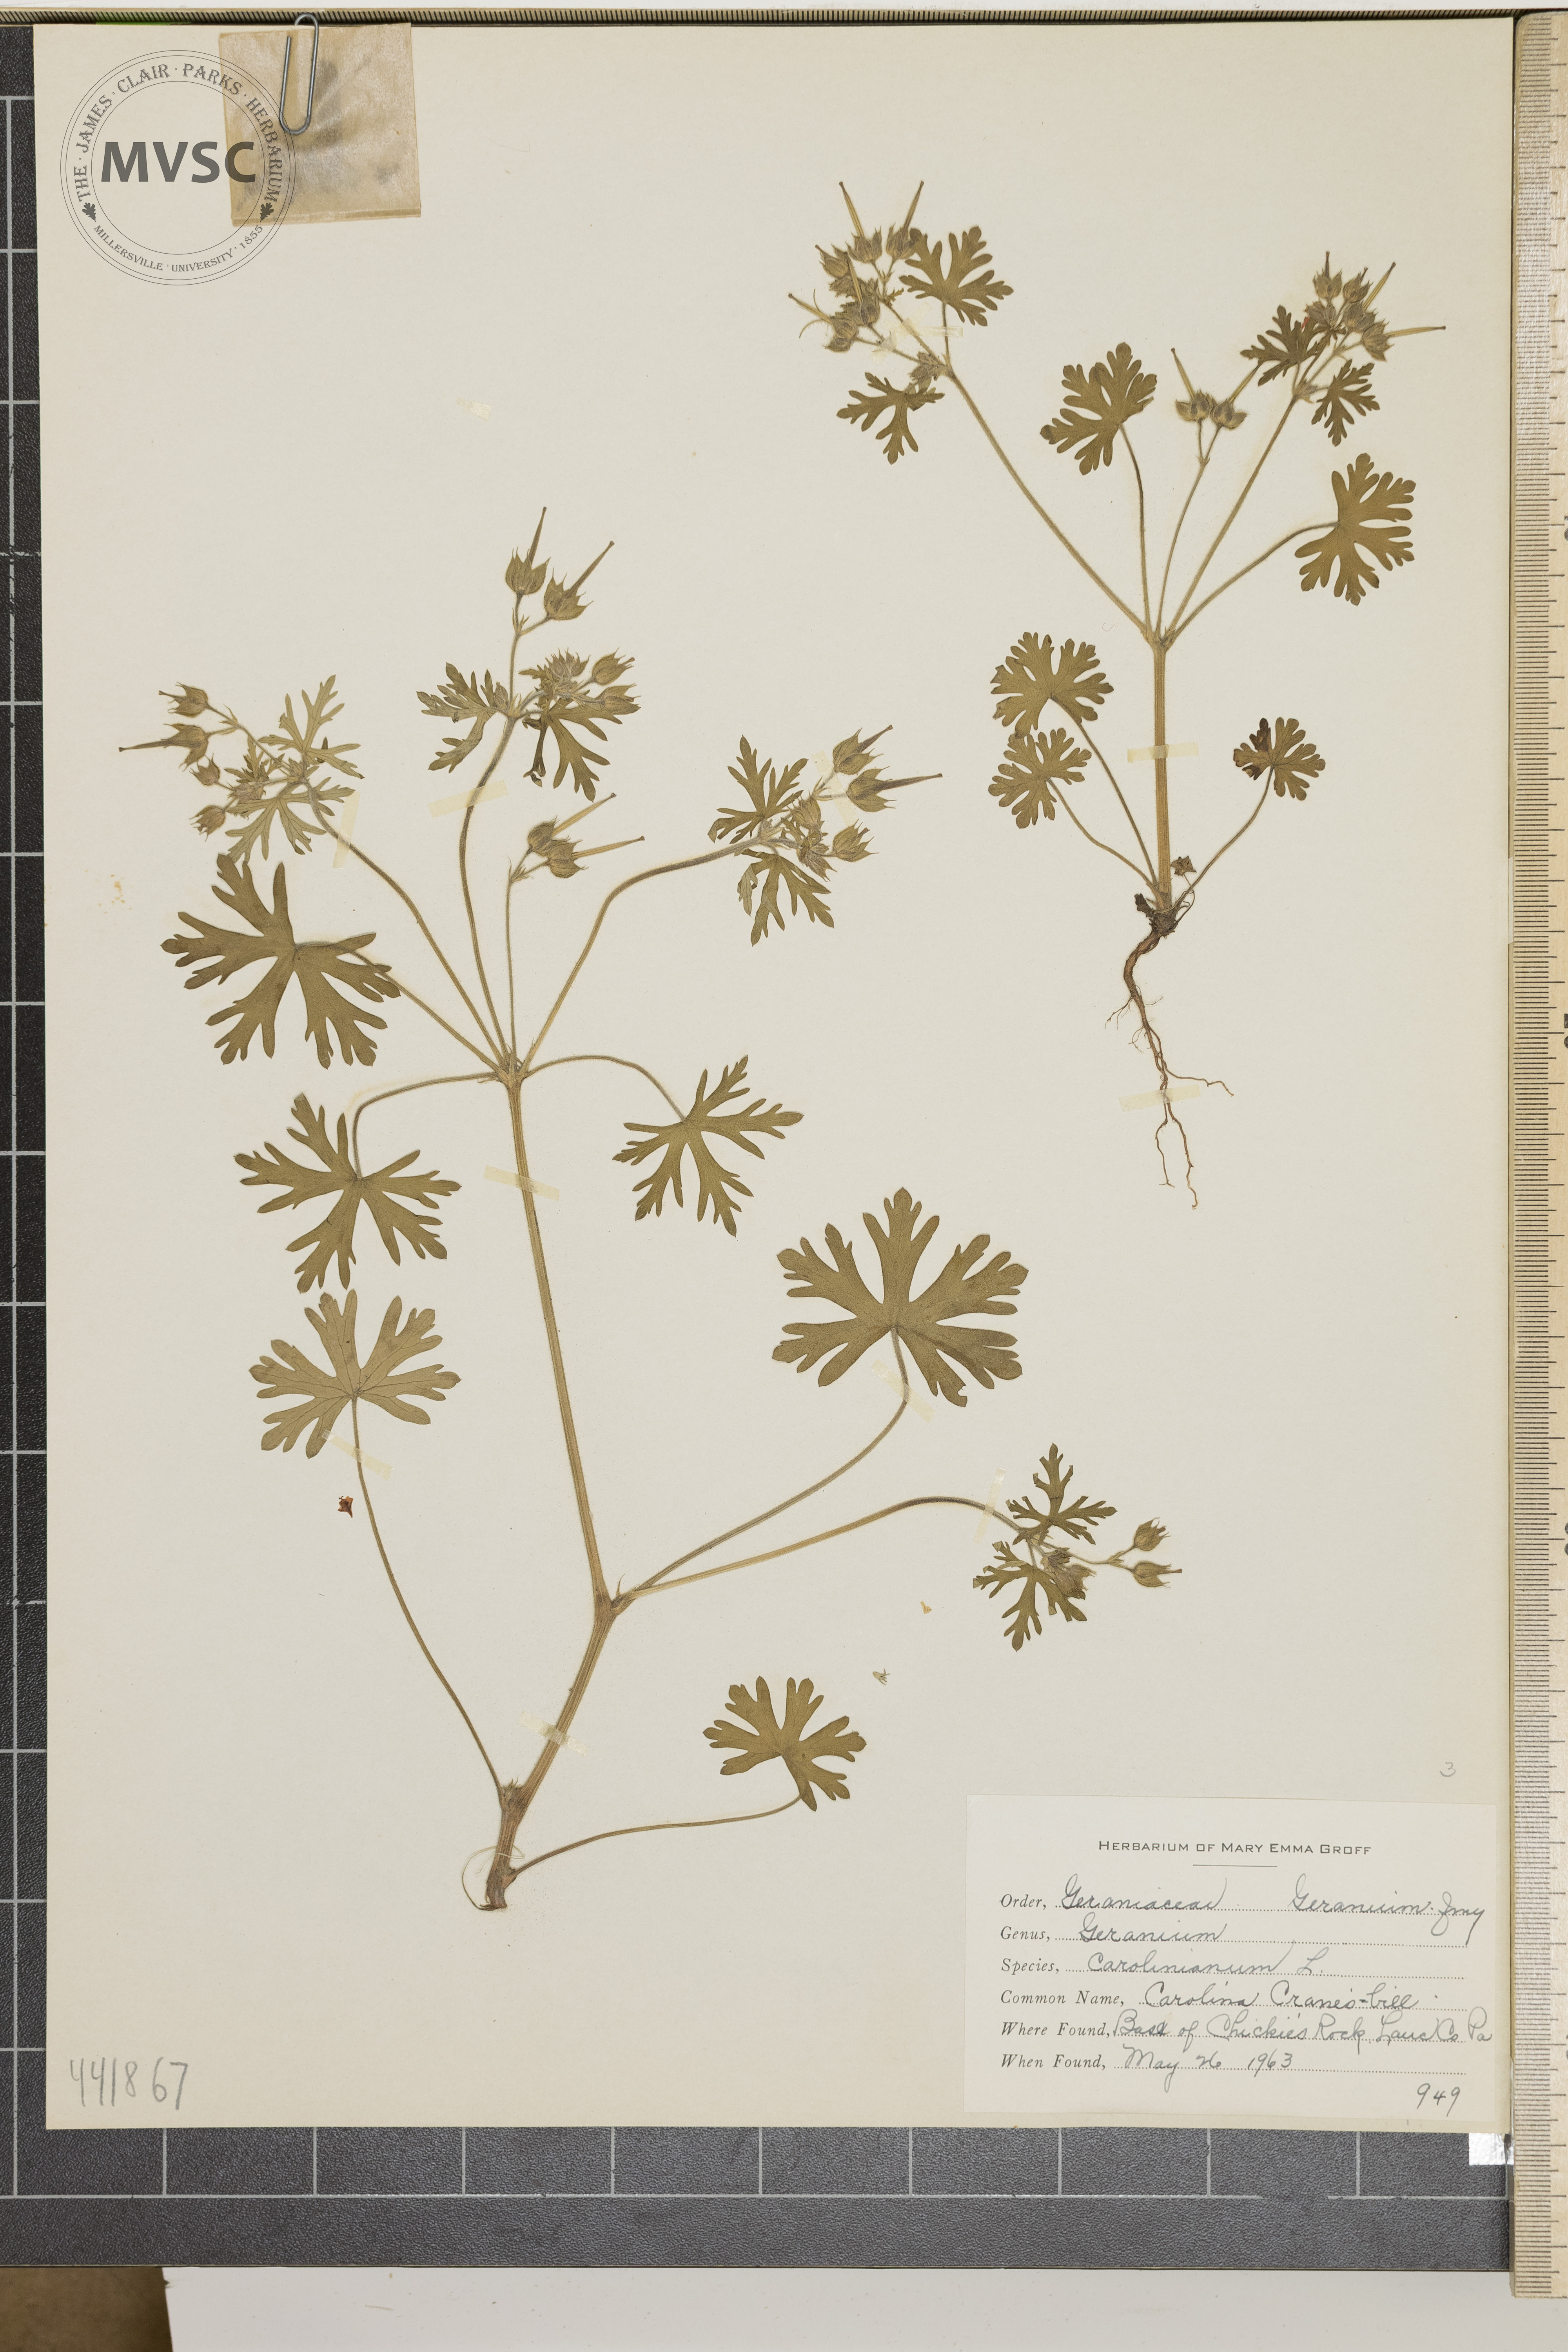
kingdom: Plantae
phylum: Tracheophyta
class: Magnoliopsida
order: Geraniales
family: Geraniaceae
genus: Geranium
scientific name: Geranium carolinianum
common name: Carolina crane's-bill
